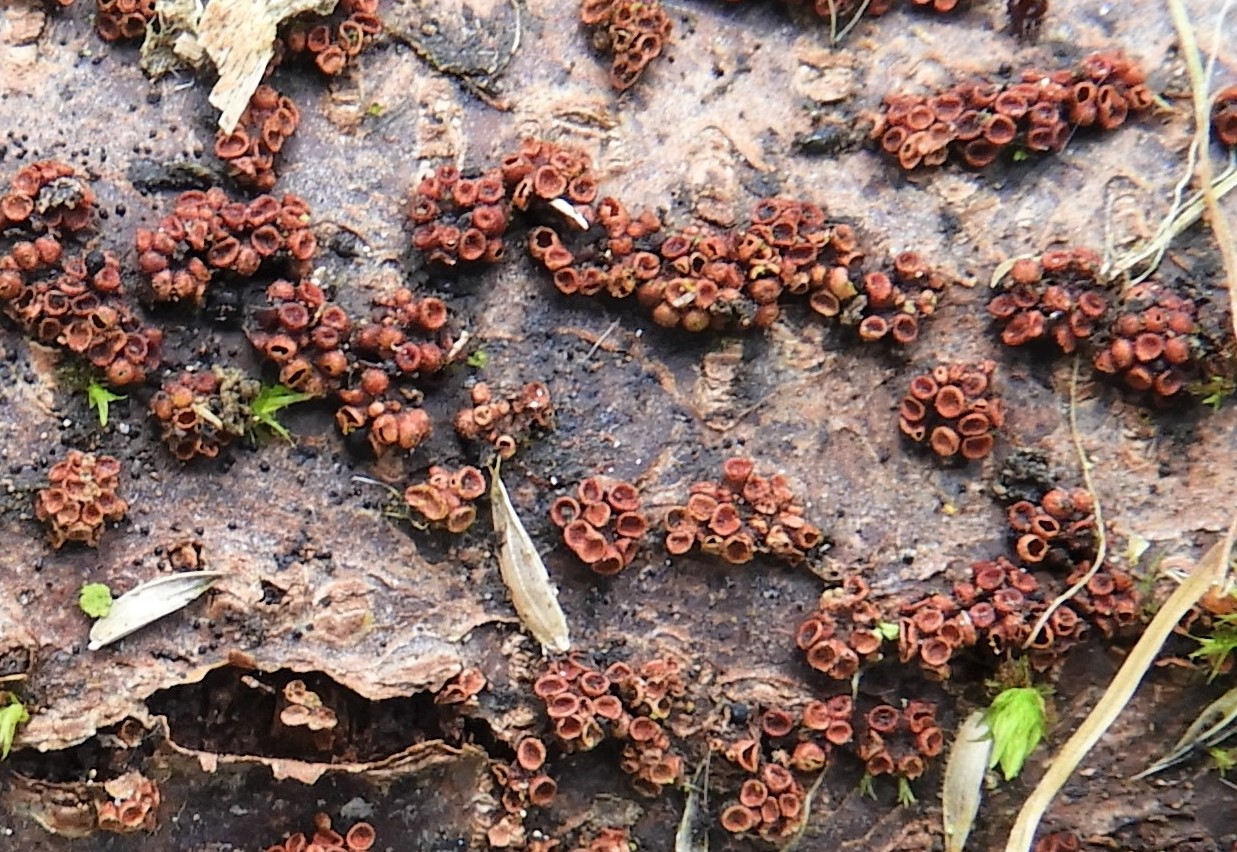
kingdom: Fungi
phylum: Ascomycota
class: Sordariomycetes
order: Hypocreales
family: Nectriaceae
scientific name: Nectriaceae
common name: cinnobersvampfamilien
